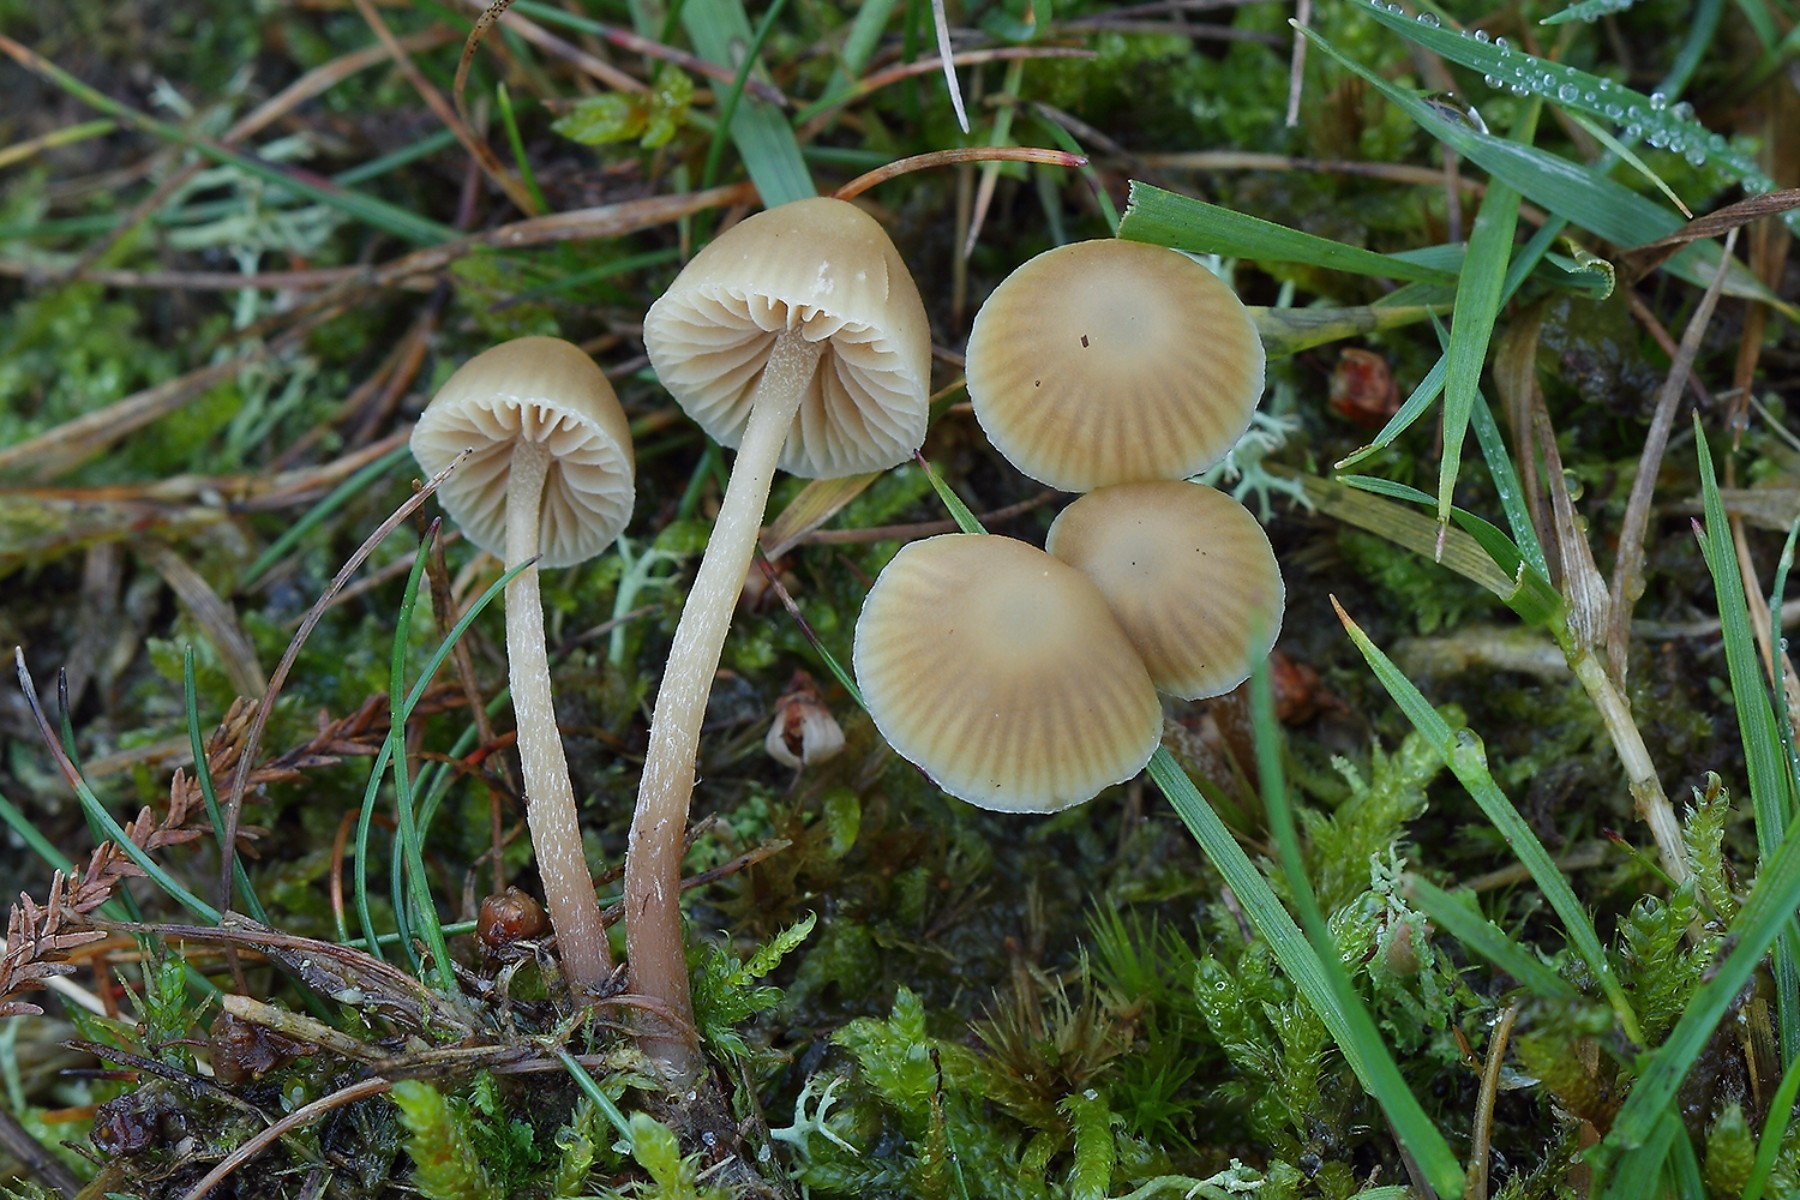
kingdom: Fungi
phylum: Basidiomycota
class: Agaricomycetes
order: Agaricales
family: Hymenogastraceae
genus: Galerina
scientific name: Galerina mniophila
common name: olivengul hjelmhat
